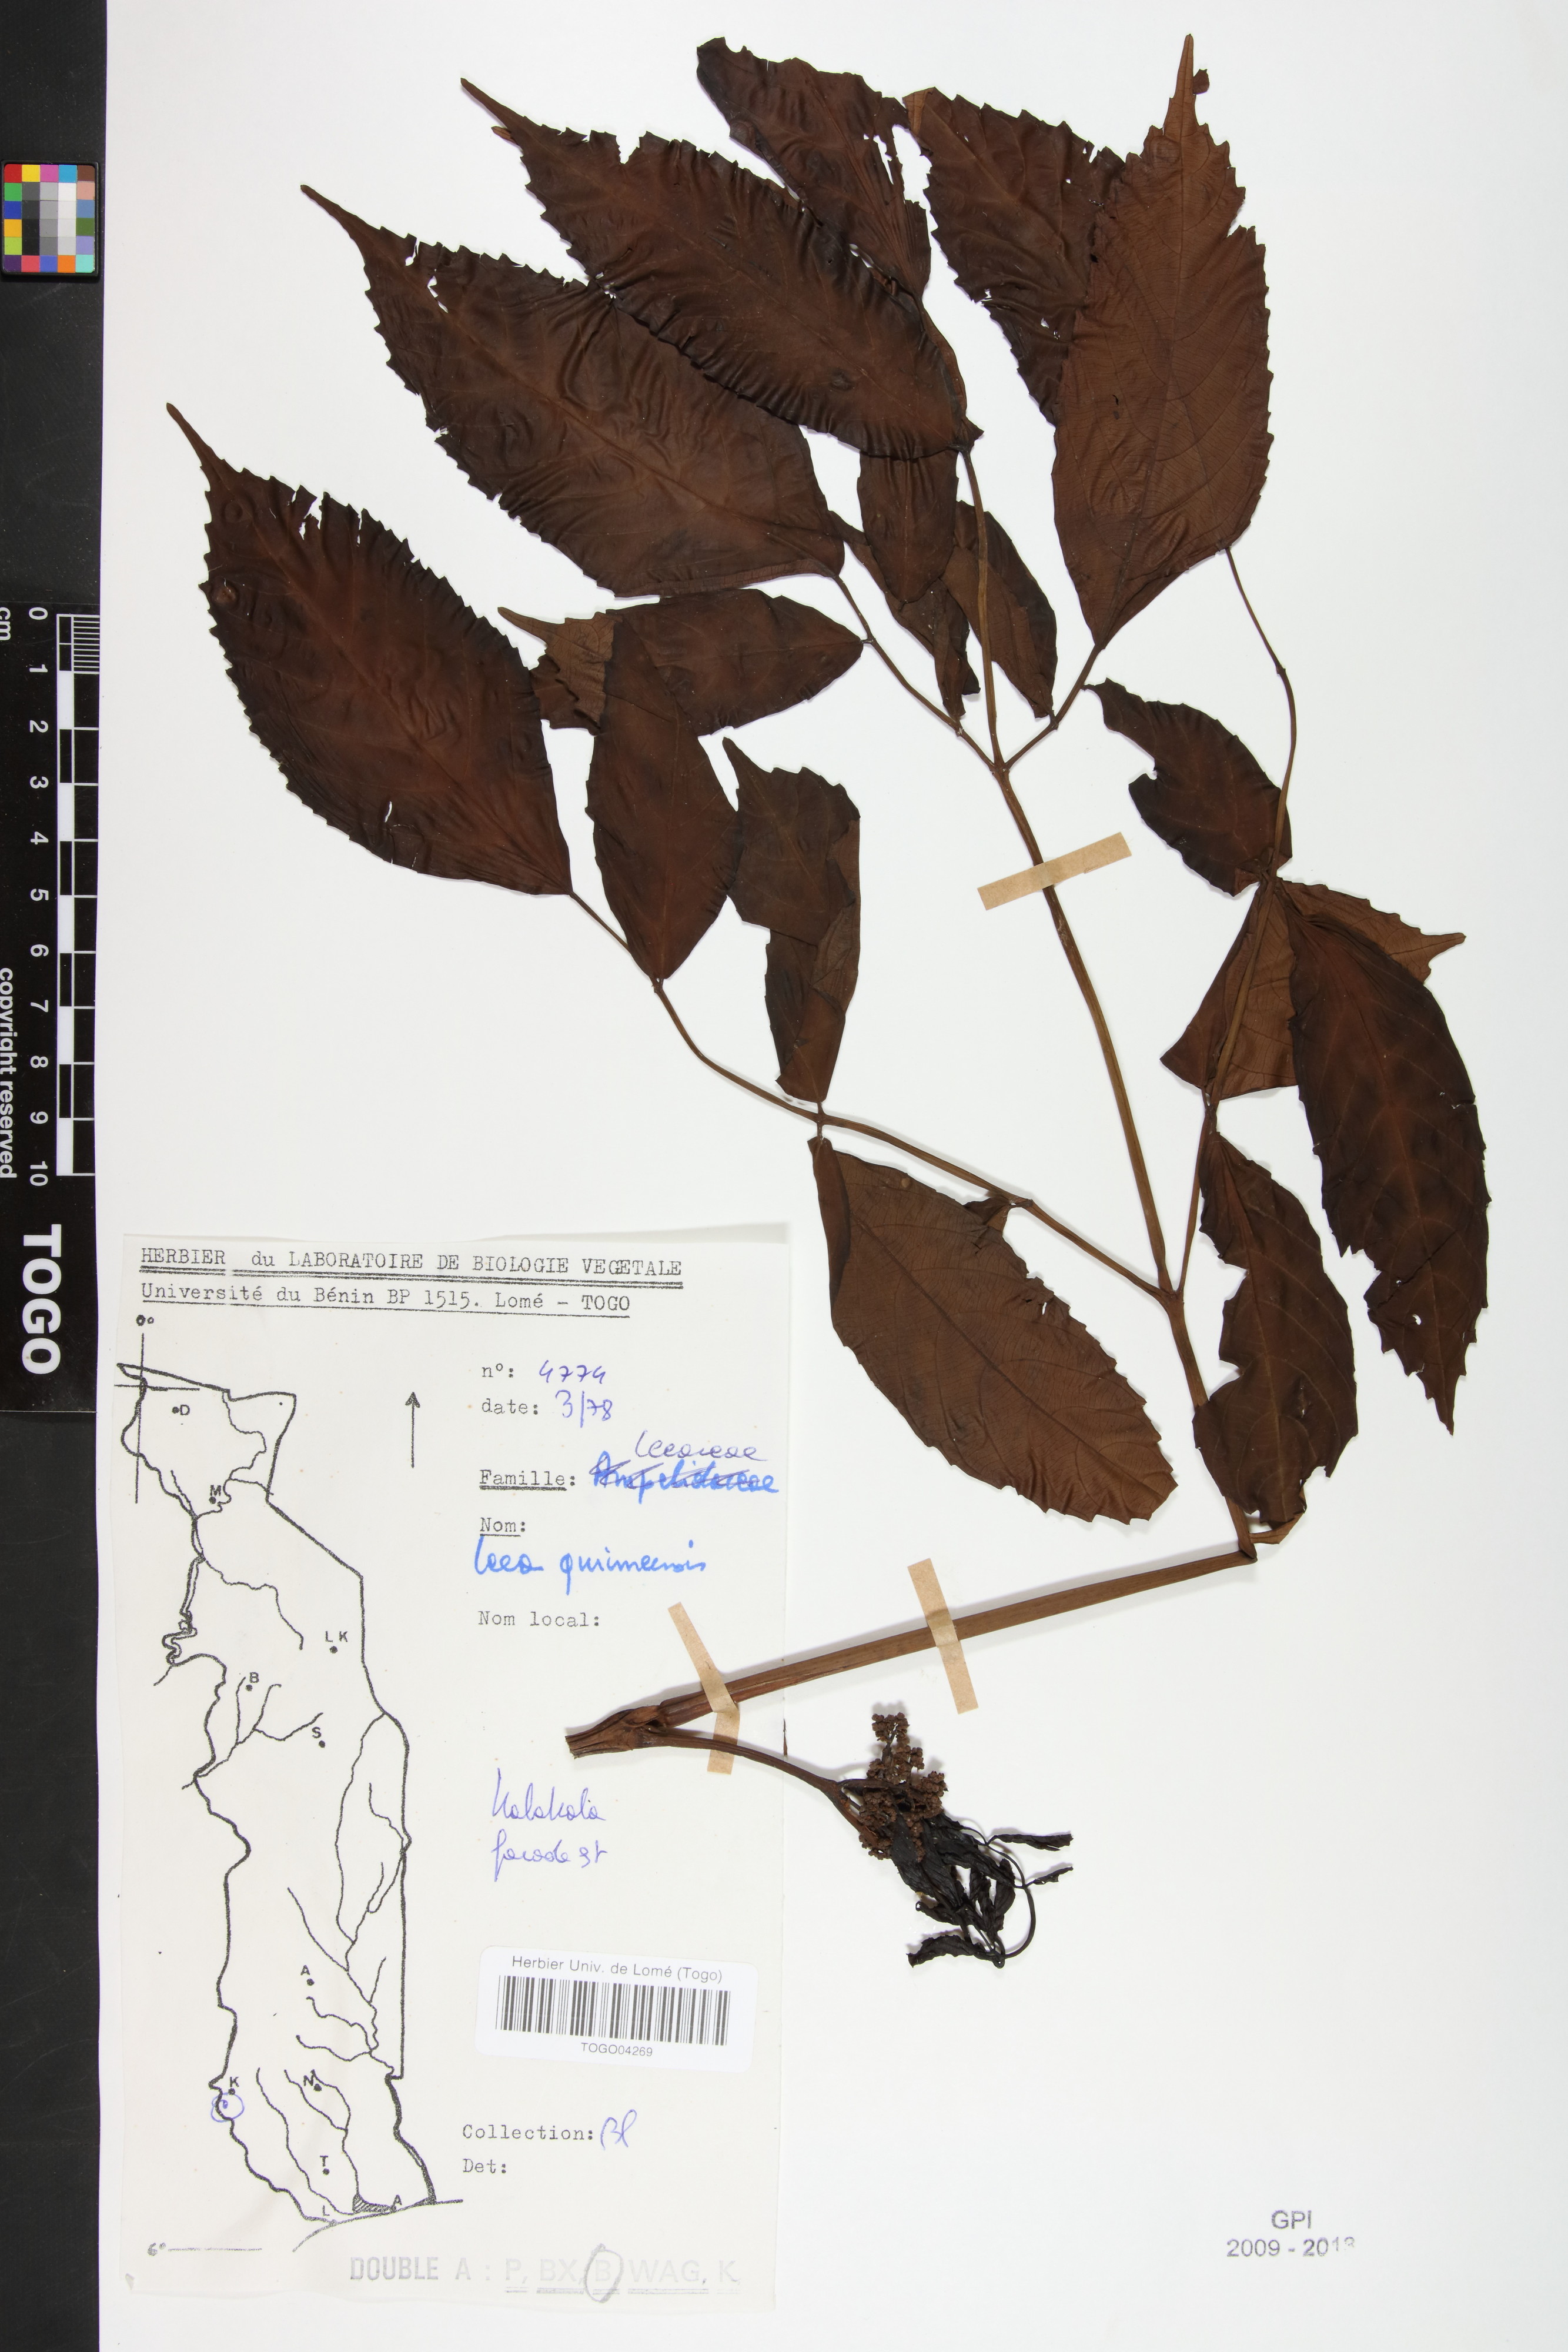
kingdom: Plantae
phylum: Tracheophyta
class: Magnoliopsida
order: Vitales
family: Vitaceae
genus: Leea
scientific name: Leea guineensis
